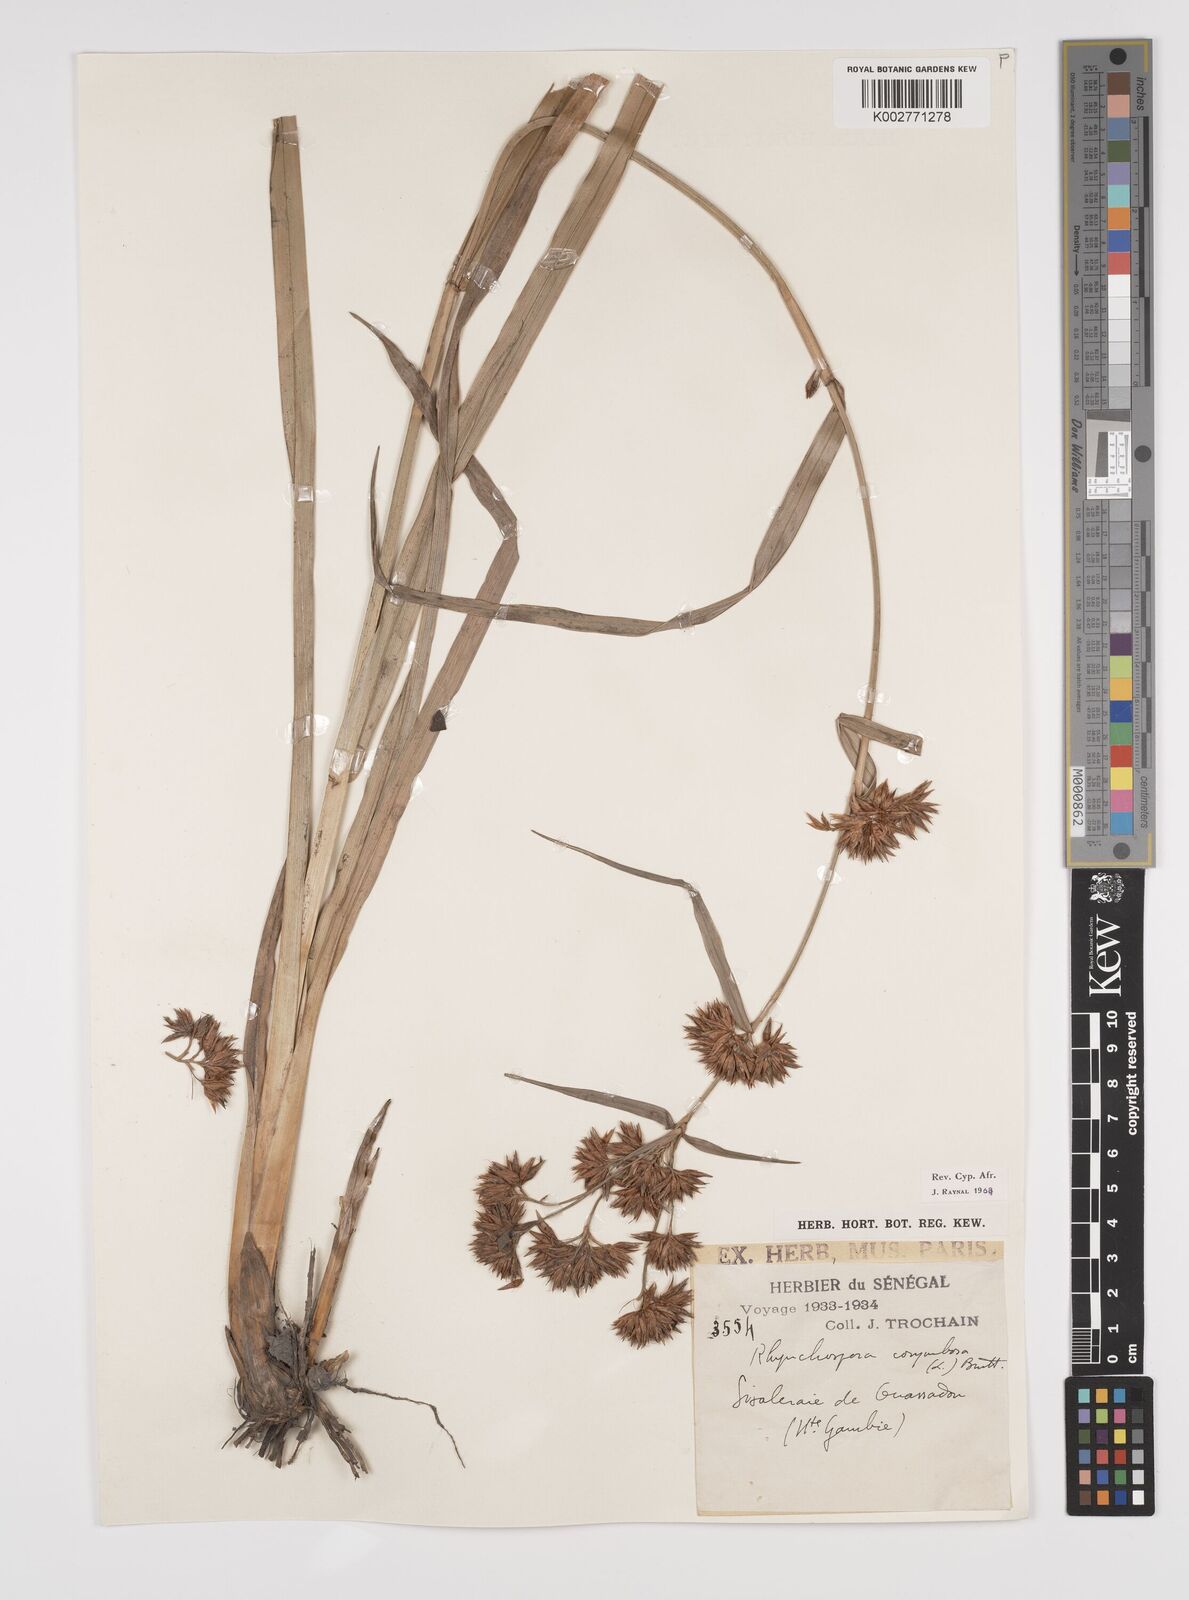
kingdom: Plantae
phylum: Tracheophyta
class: Liliopsida
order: Poales
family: Cyperaceae
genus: Rhynchospora
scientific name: Rhynchospora corymbosa
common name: Golden beak sedge
